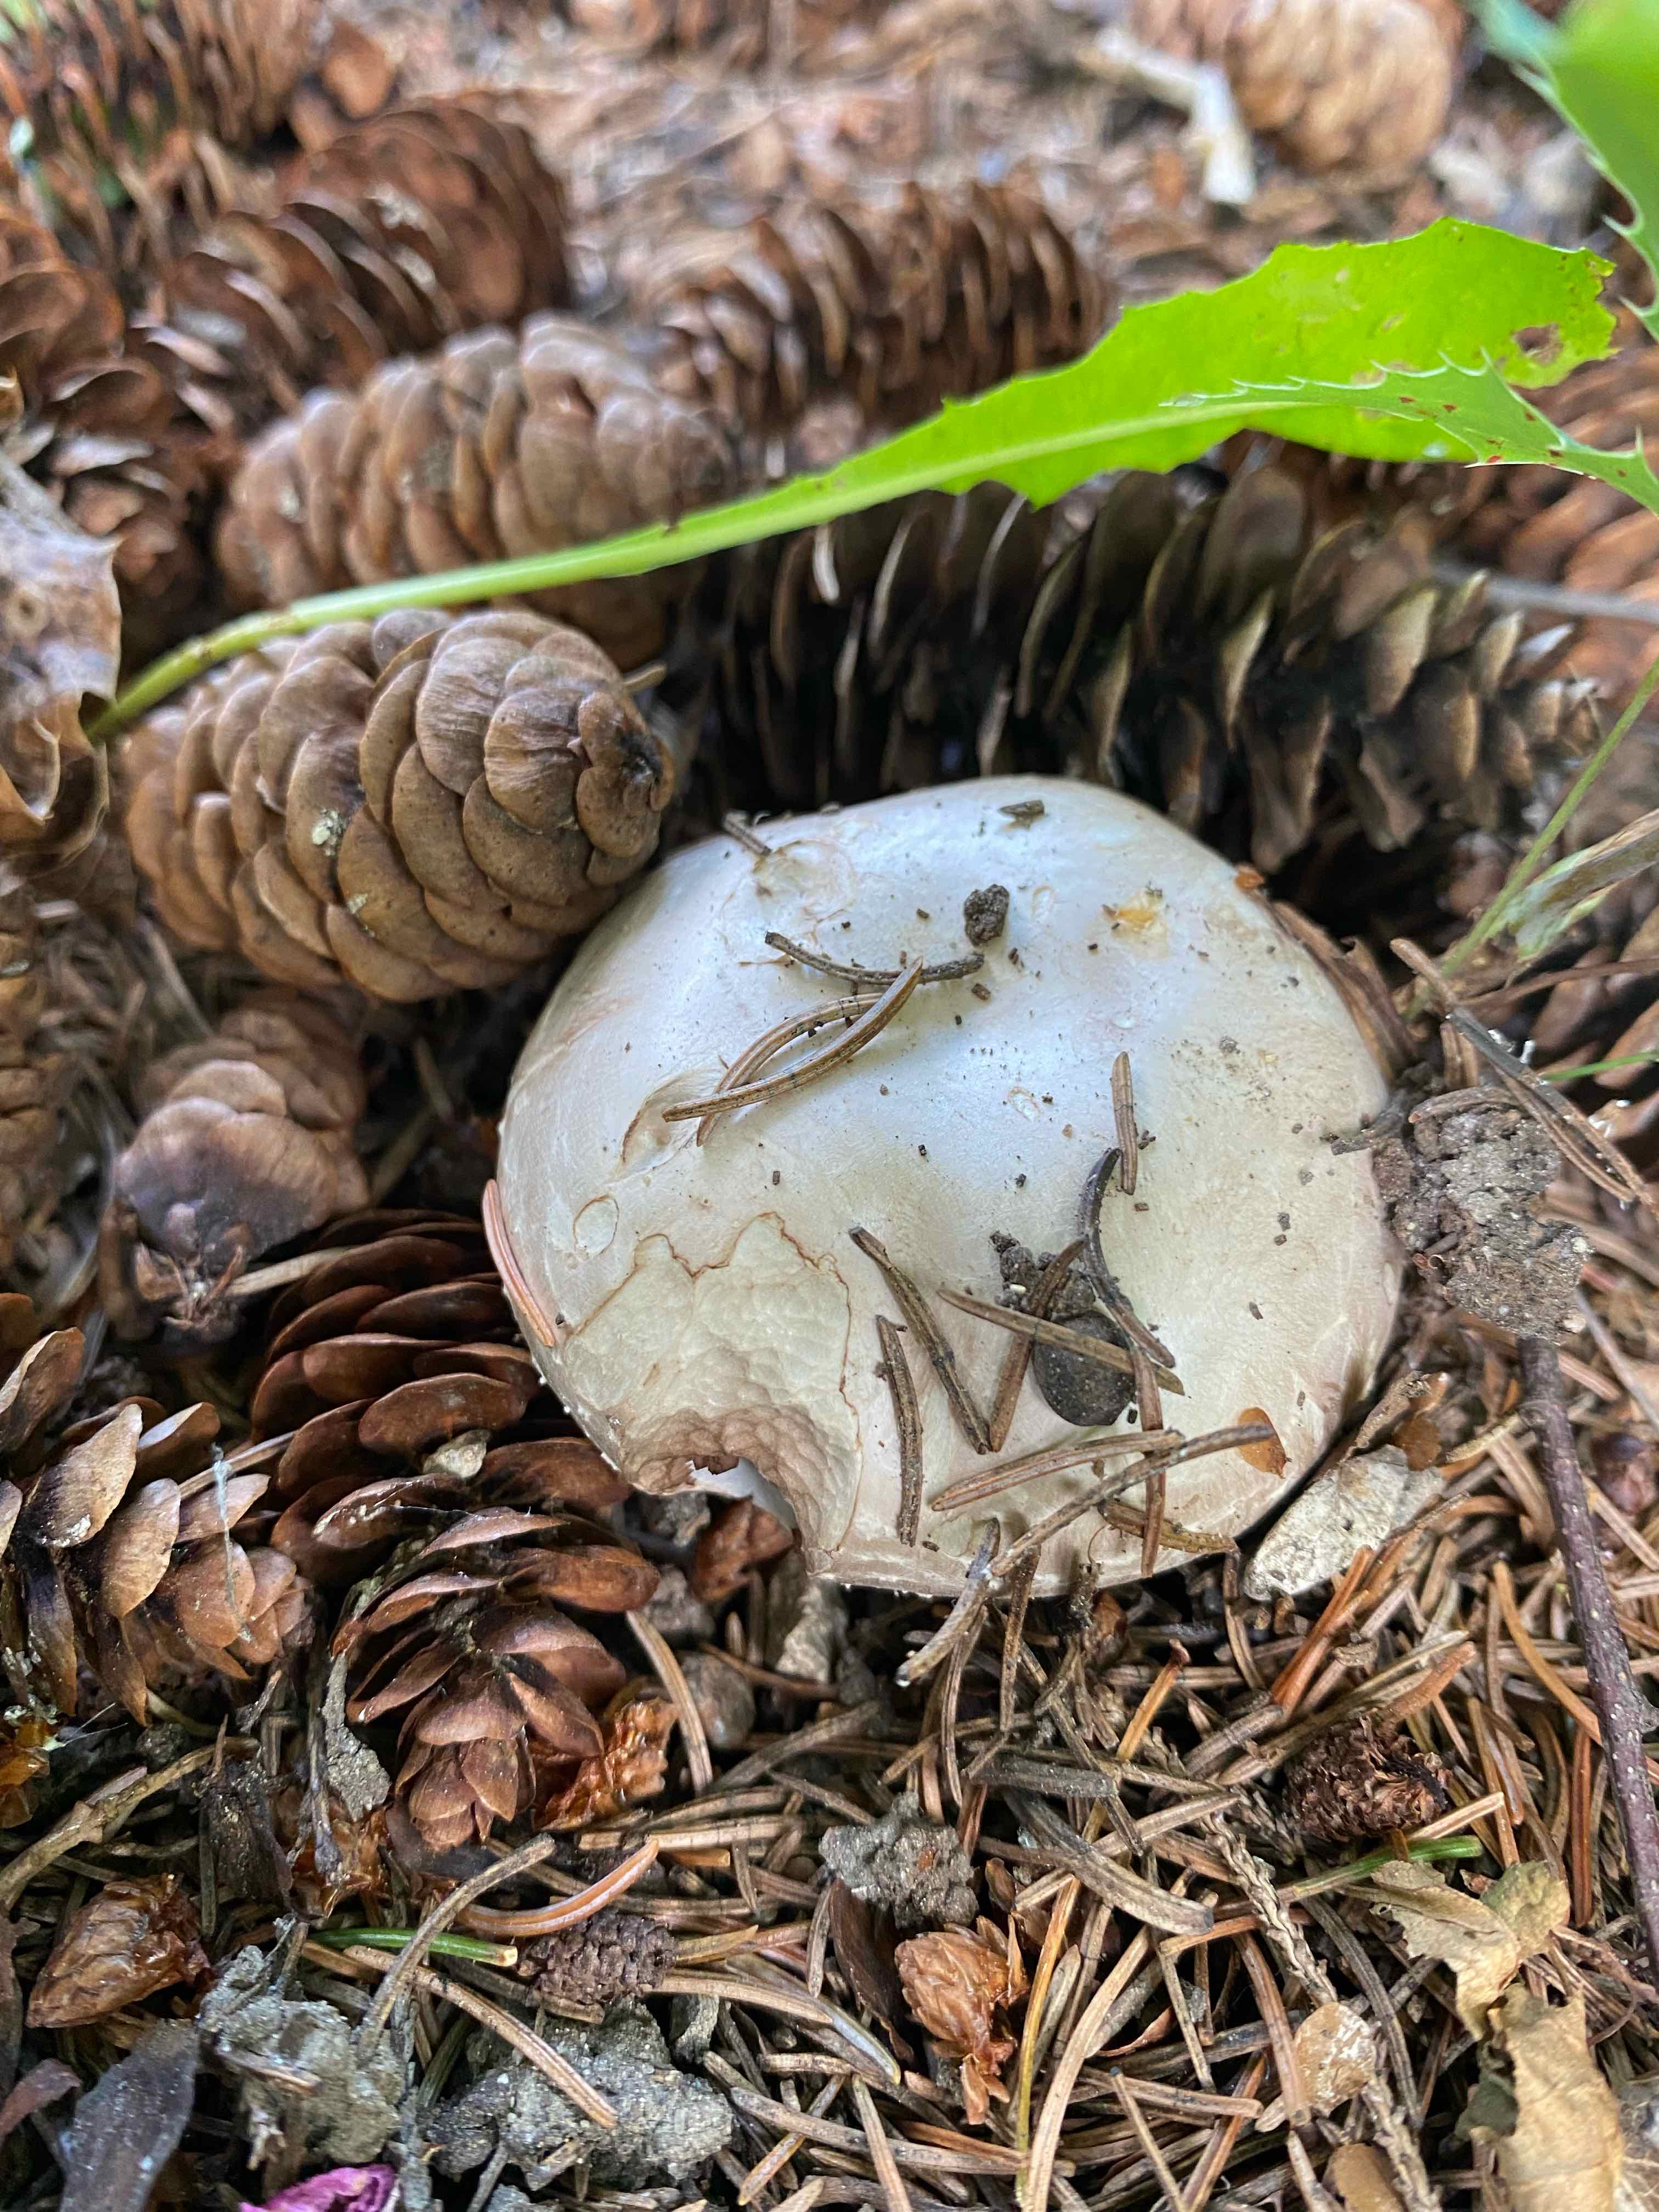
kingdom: Fungi
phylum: Basidiomycota
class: Agaricomycetes
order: Agaricales
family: Agaricaceae
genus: Agaricus
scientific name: Agaricus
